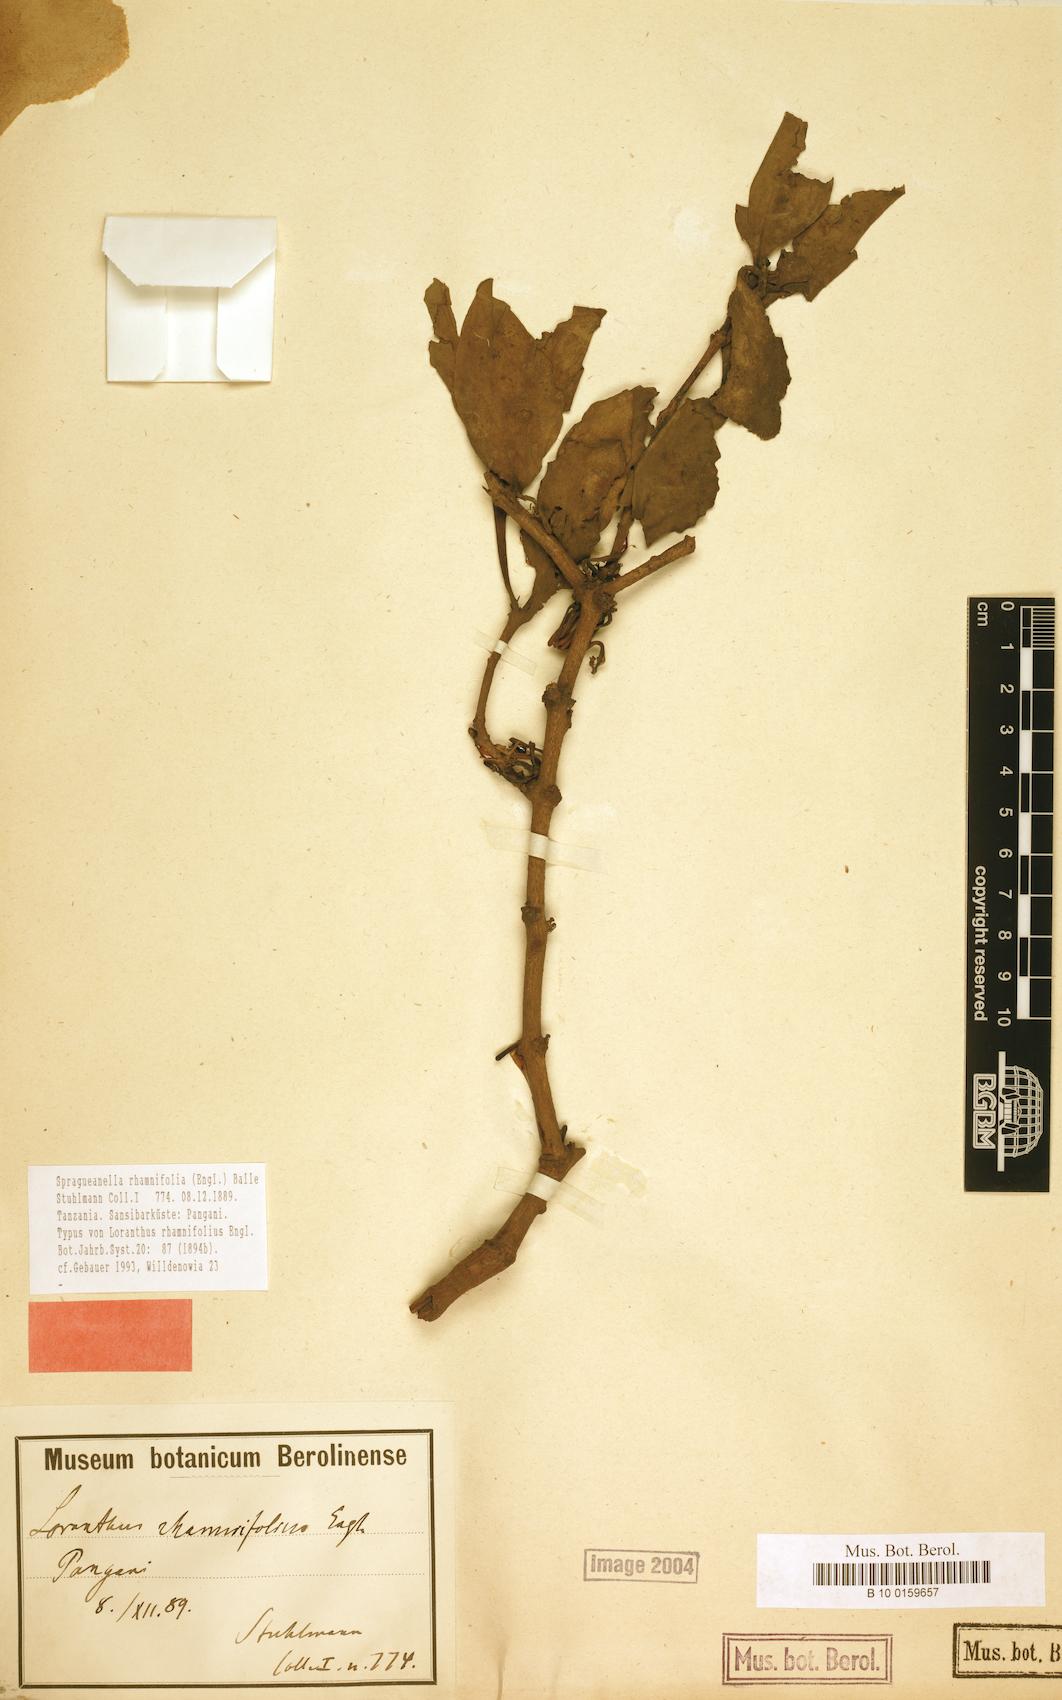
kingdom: Plantae
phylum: Tracheophyta
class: Magnoliopsida
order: Santalales
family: Loranthaceae
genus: Spragueanella
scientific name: Spragueanella rhamnifolia
